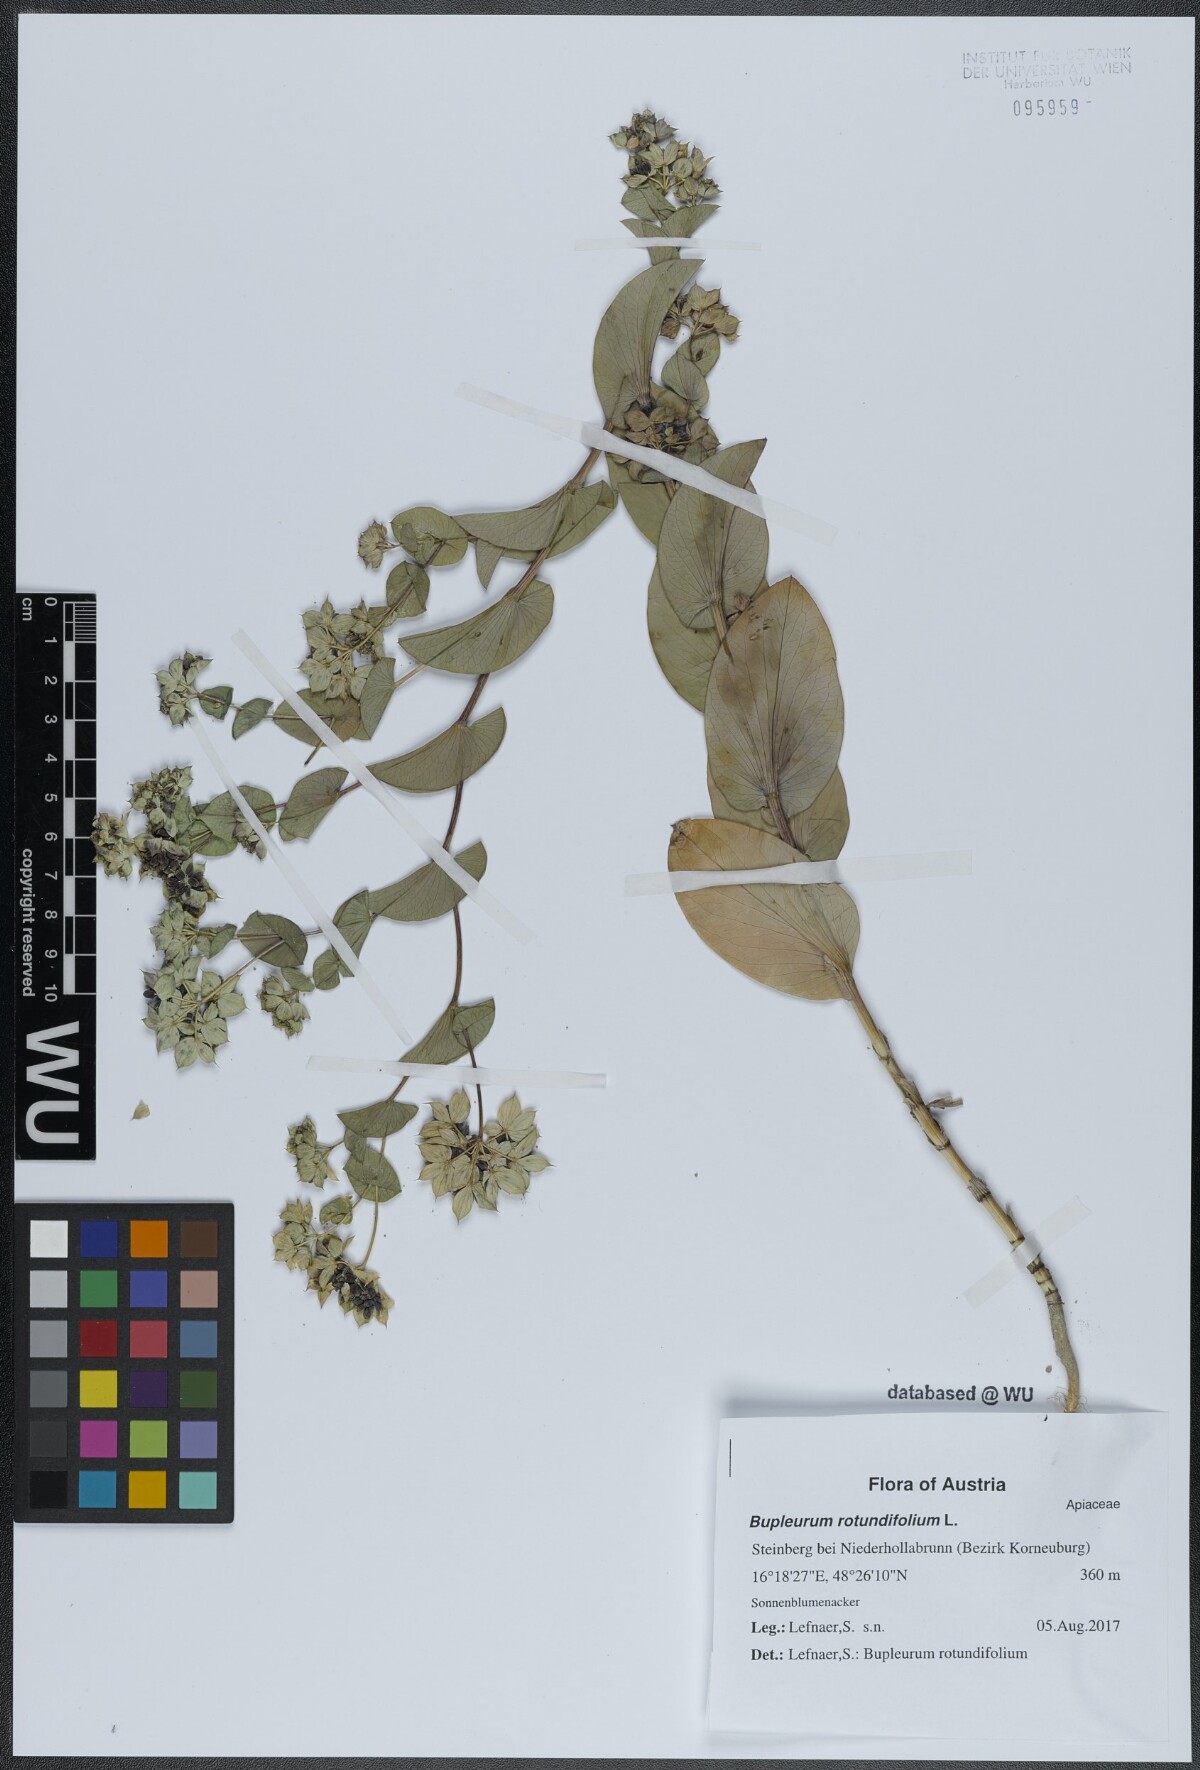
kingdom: Plantae
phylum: Tracheophyta
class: Magnoliopsida
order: Apiales
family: Apiaceae
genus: Bupleurum
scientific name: Bupleurum rotundifolium
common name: Thorow-wax
